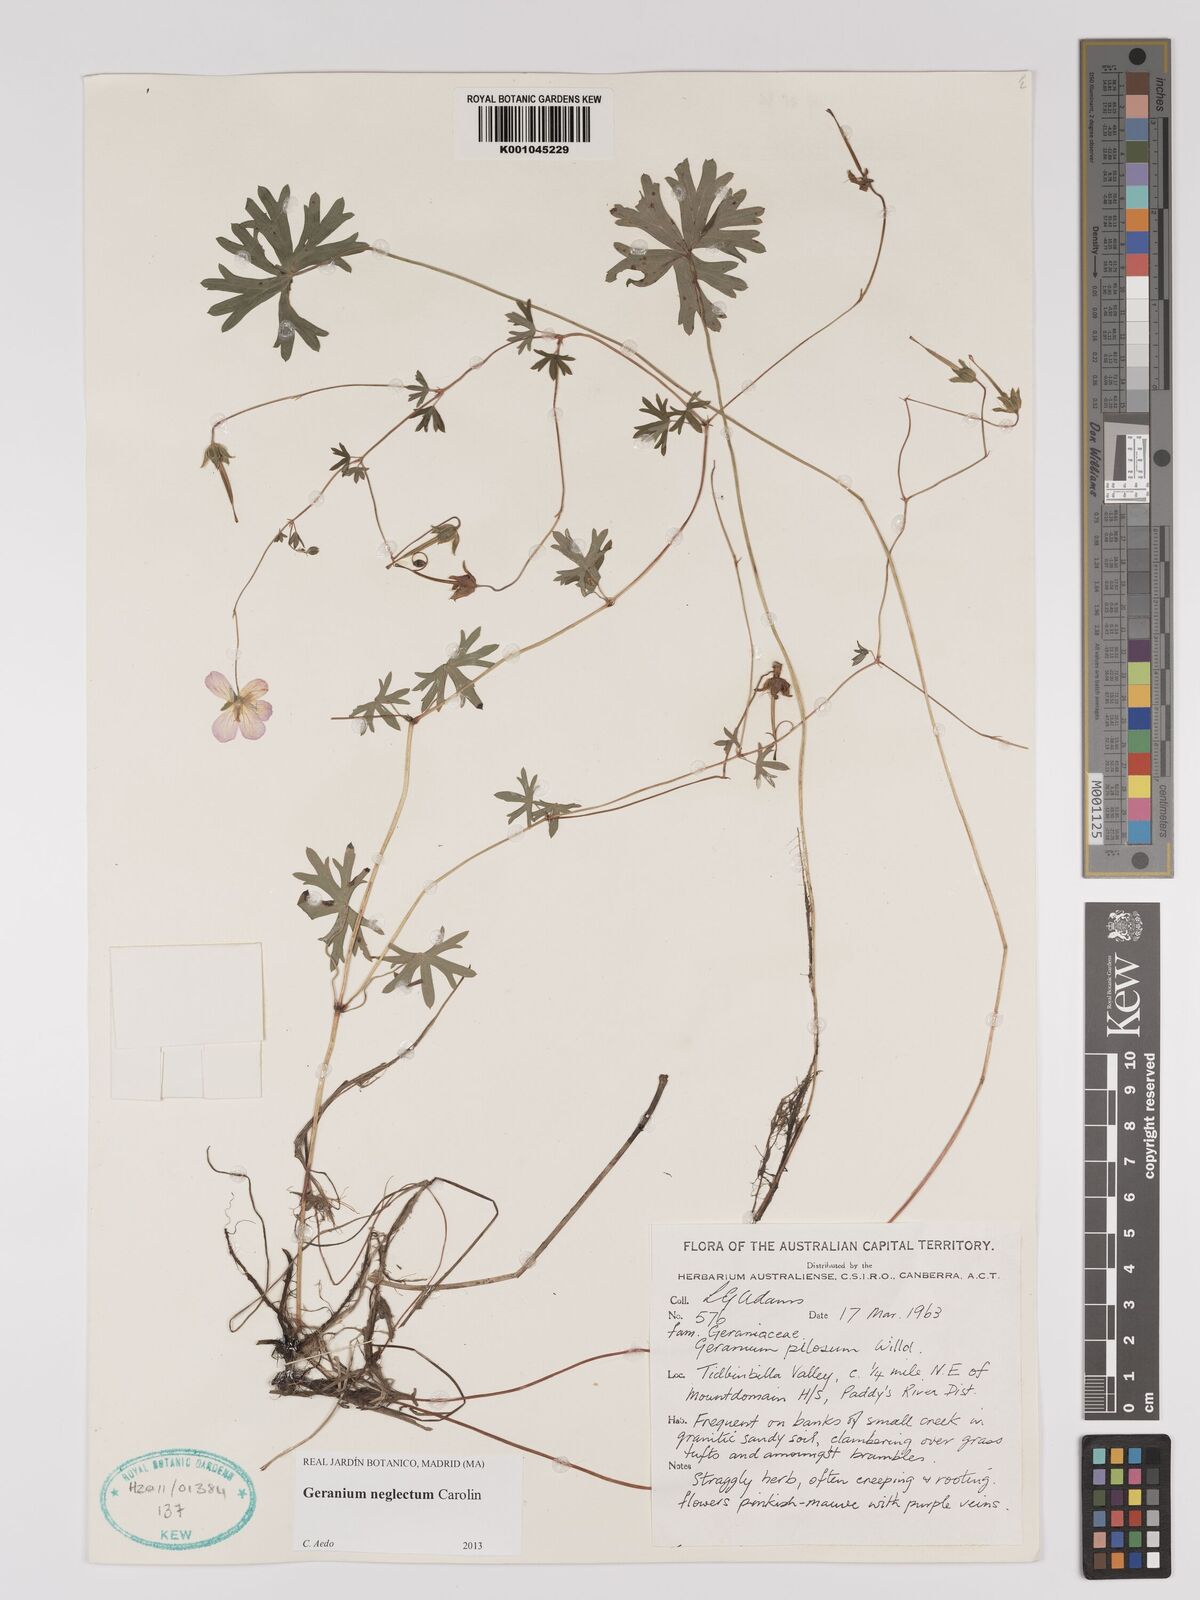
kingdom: Plantae
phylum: Tracheophyta
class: Magnoliopsida
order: Geraniales
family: Geraniaceae
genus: Geranium
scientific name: Geranium neglectum
